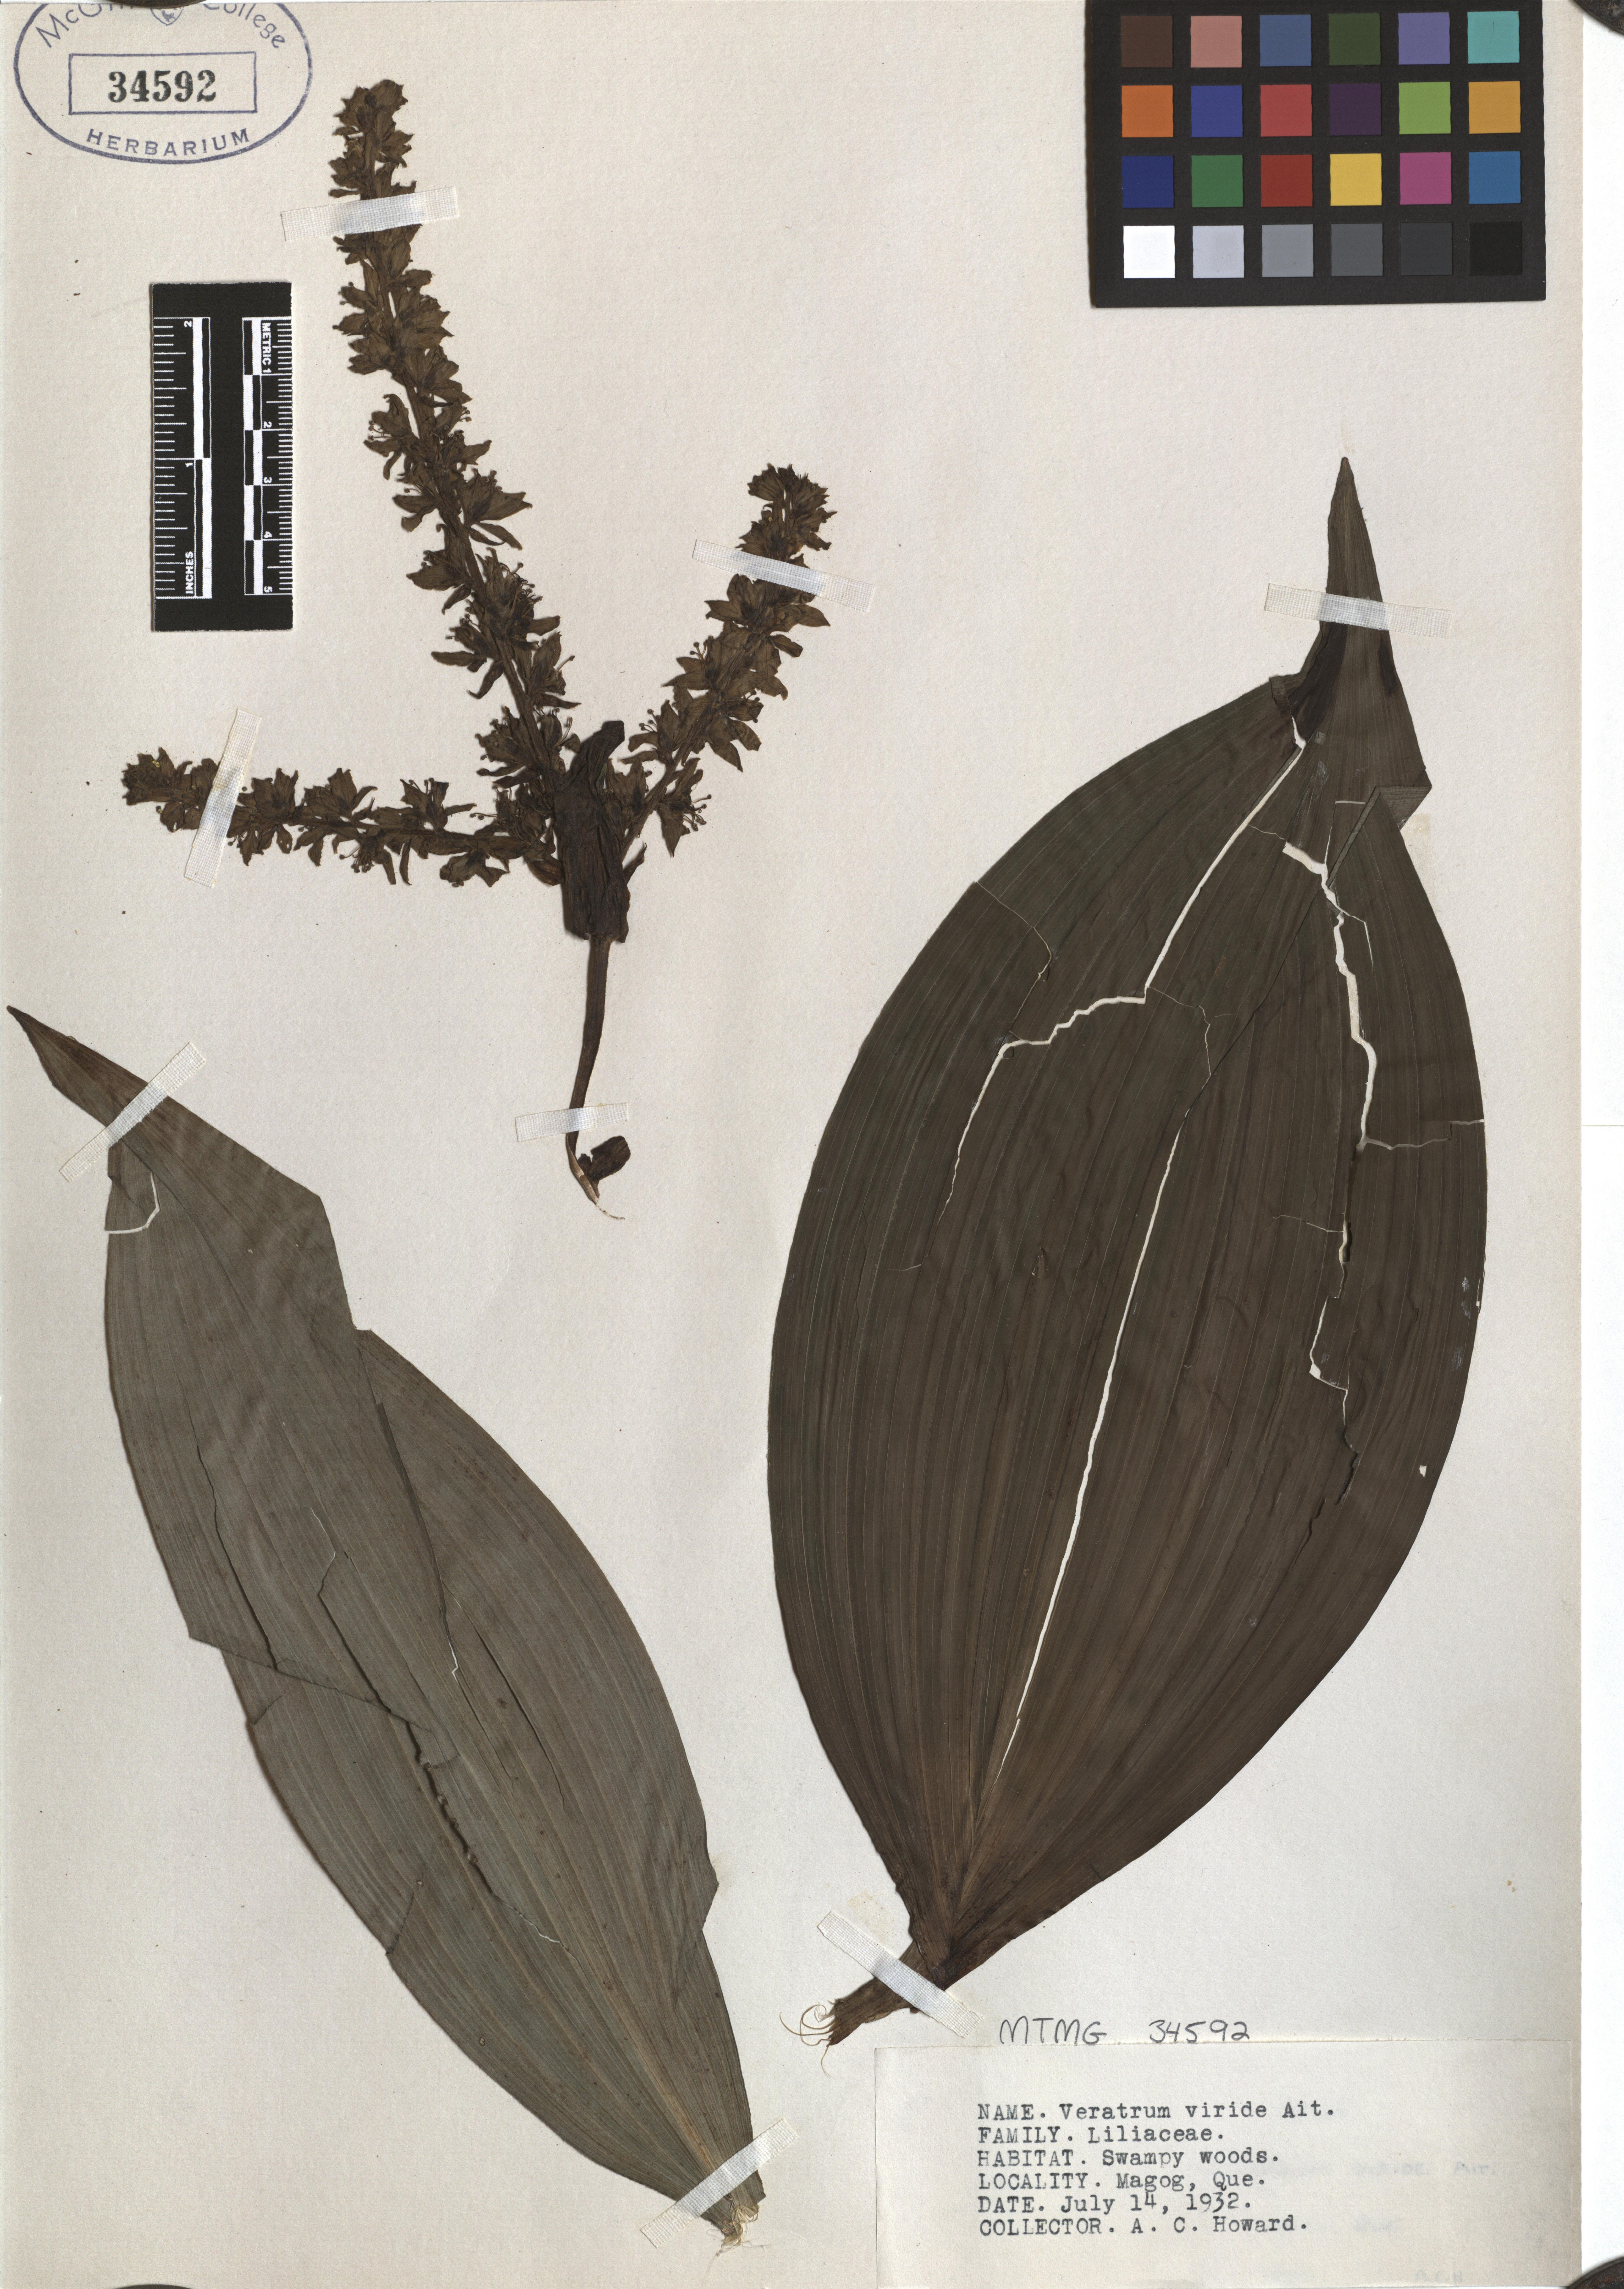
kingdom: Plantae
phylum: Tracheophyta
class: Liliopsida
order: Liliales
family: Melanthiaceae
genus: Veratrum
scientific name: Veratrum viride
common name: American false hellebore
